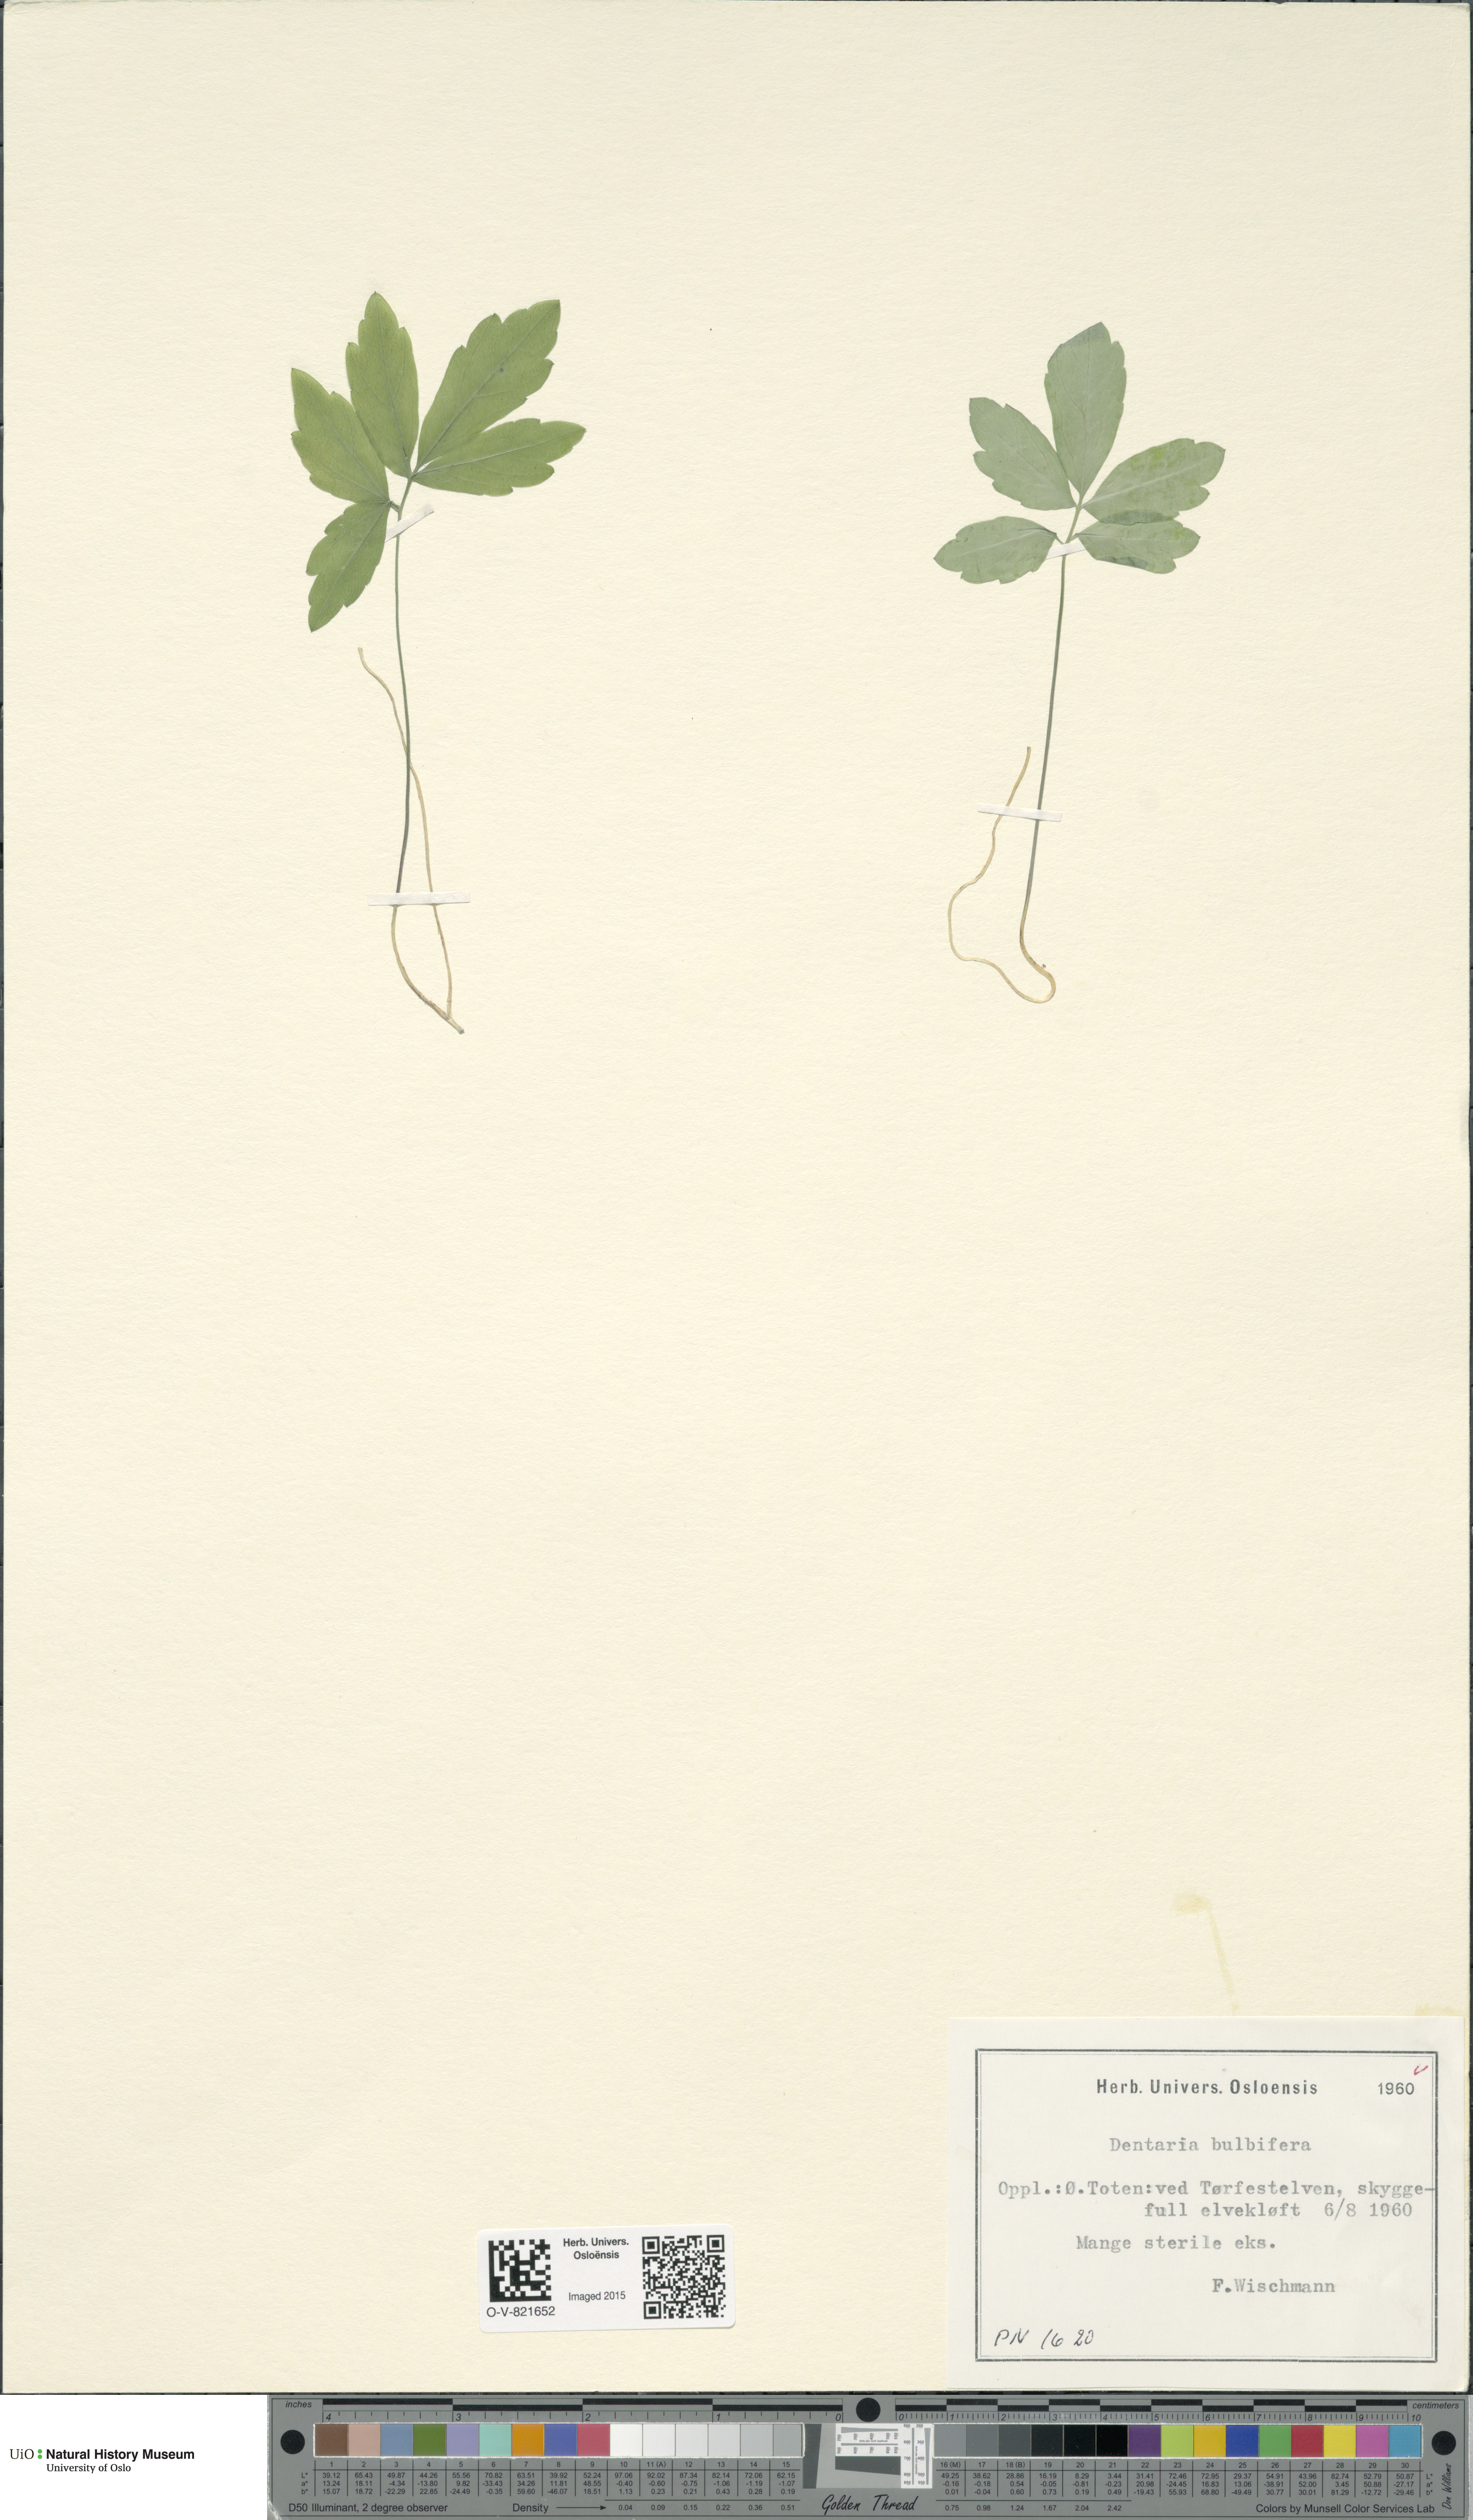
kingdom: Plantae
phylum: Tracheophyta
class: Magnoliopsida
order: Brassicales
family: Brassicaceae
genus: Cardamine
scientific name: Cardamine bulbifera
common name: Coralroot bittercress
